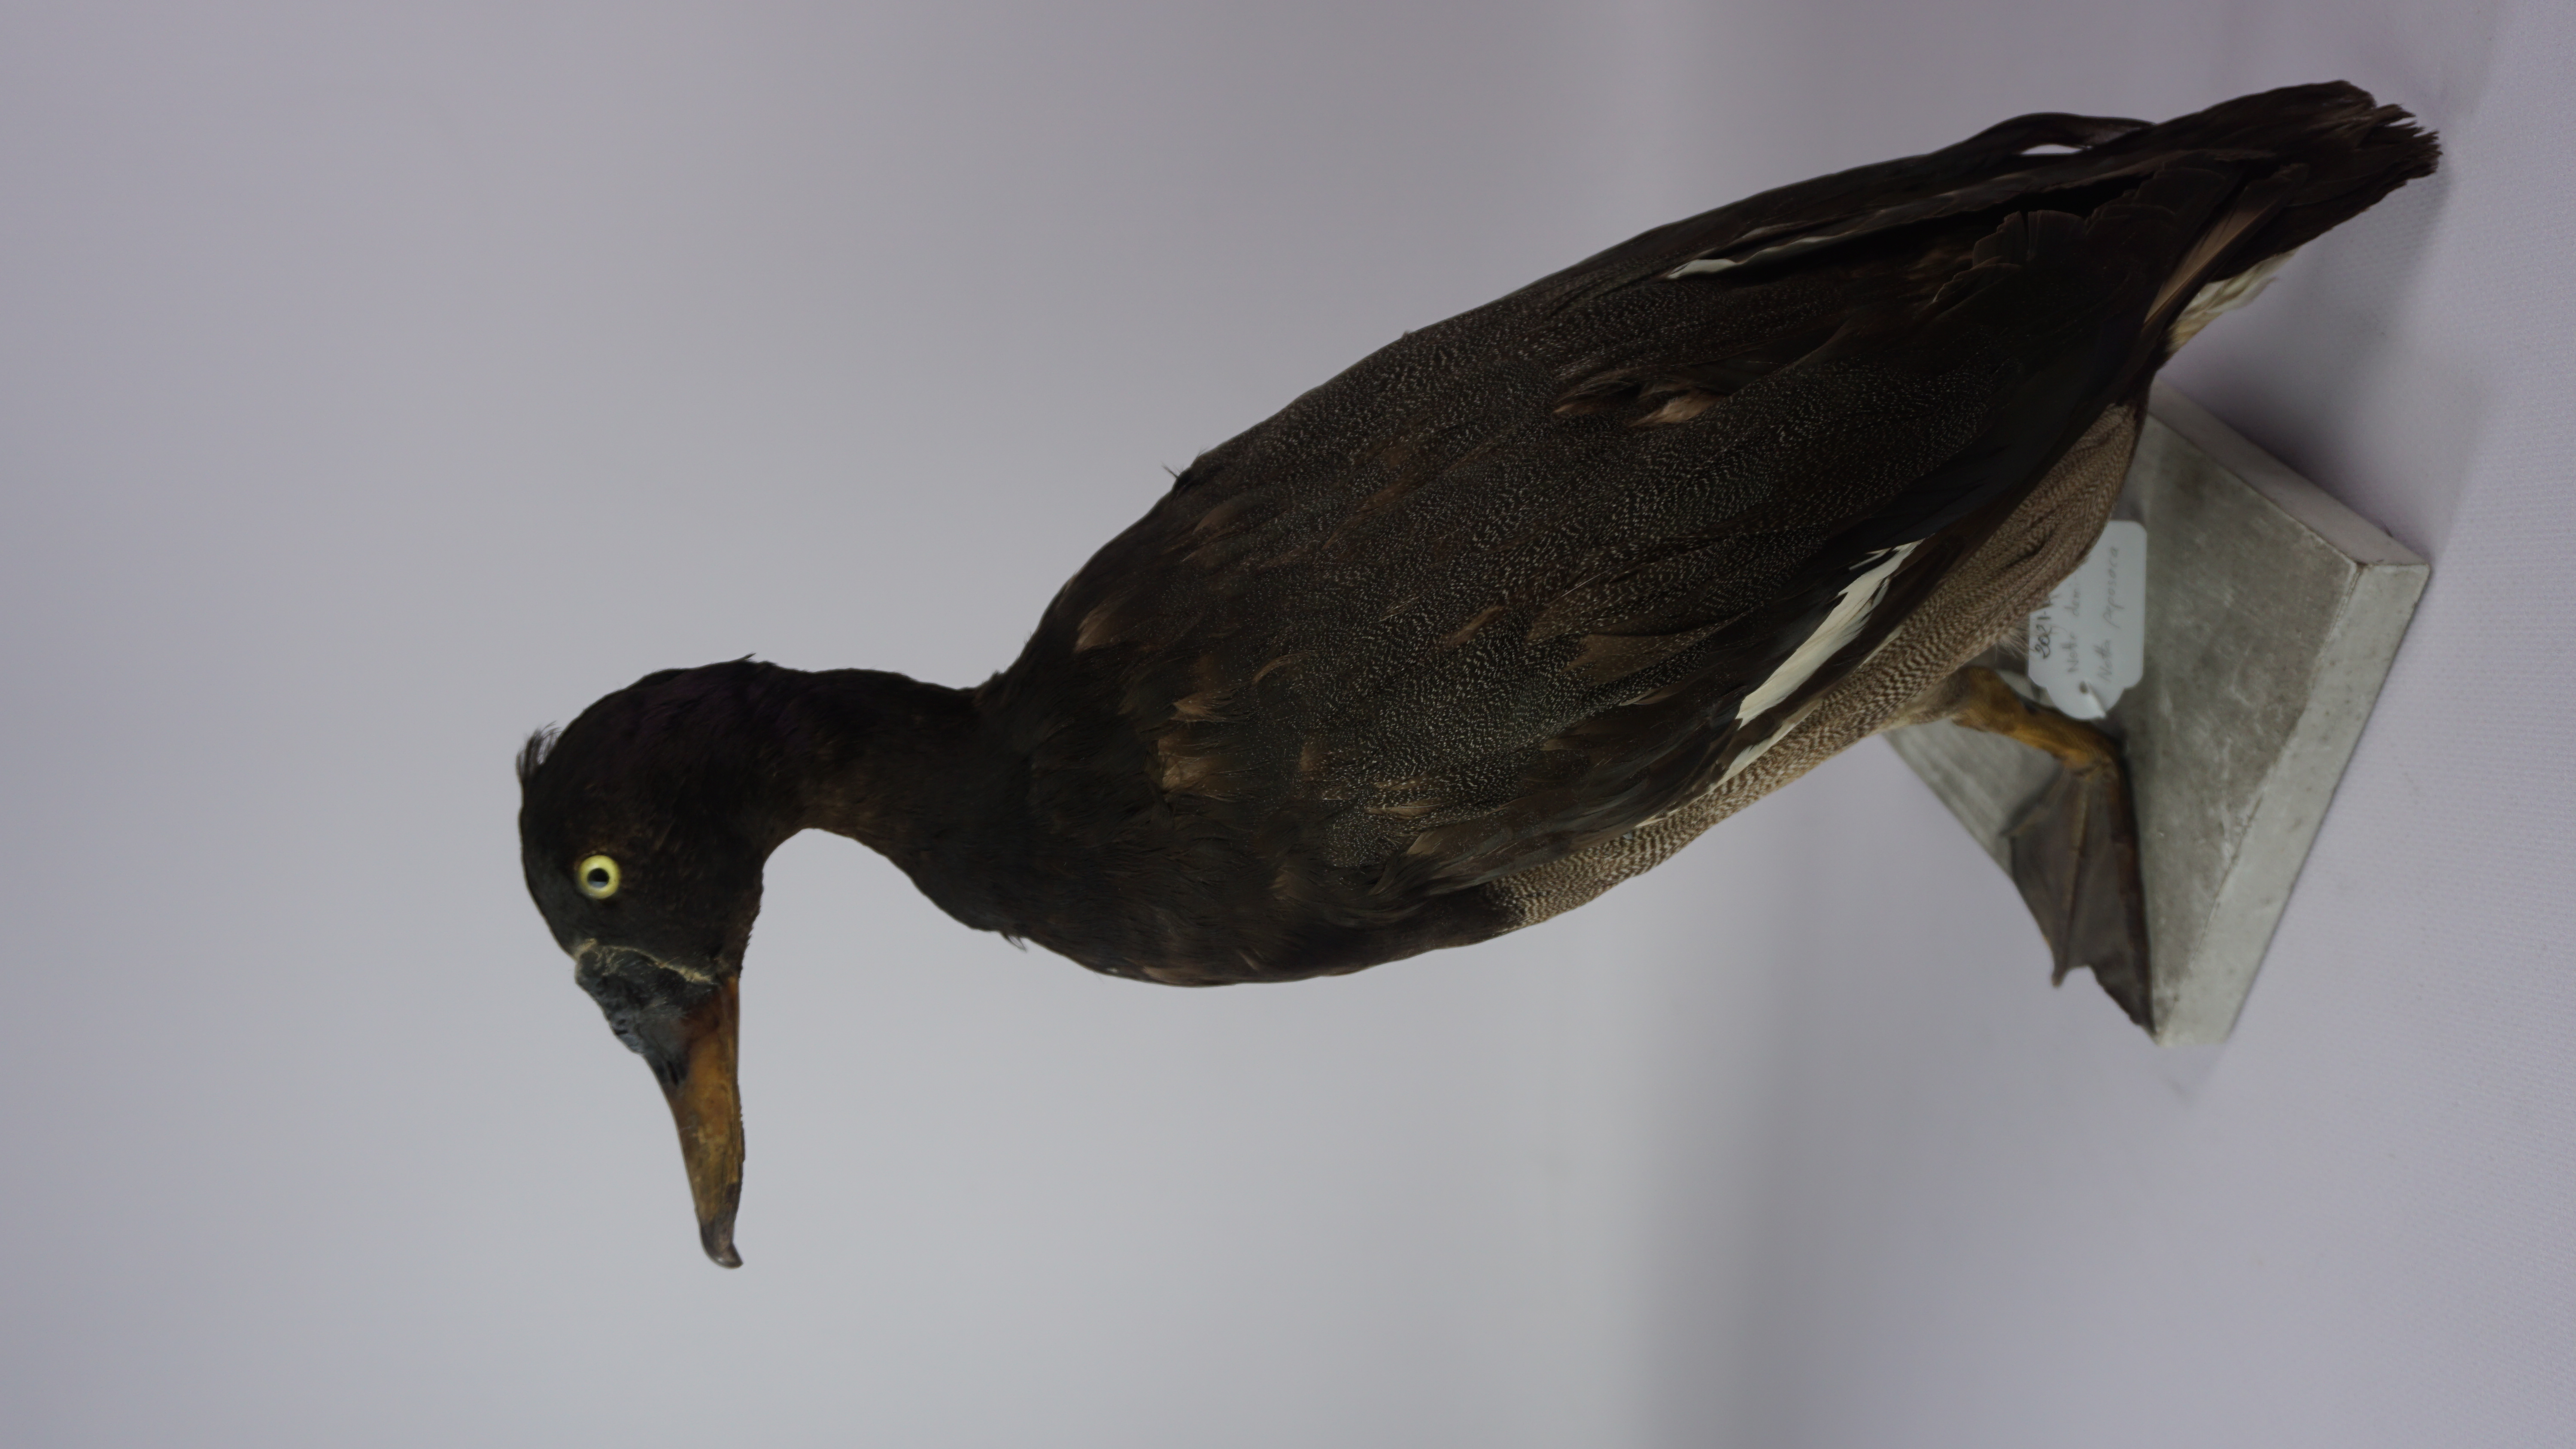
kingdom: Animalia
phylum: Chordata
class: Aves
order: Anseriformes
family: Anatidae
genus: Netta
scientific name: Netta peposaca
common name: Rosy-billed pochard
